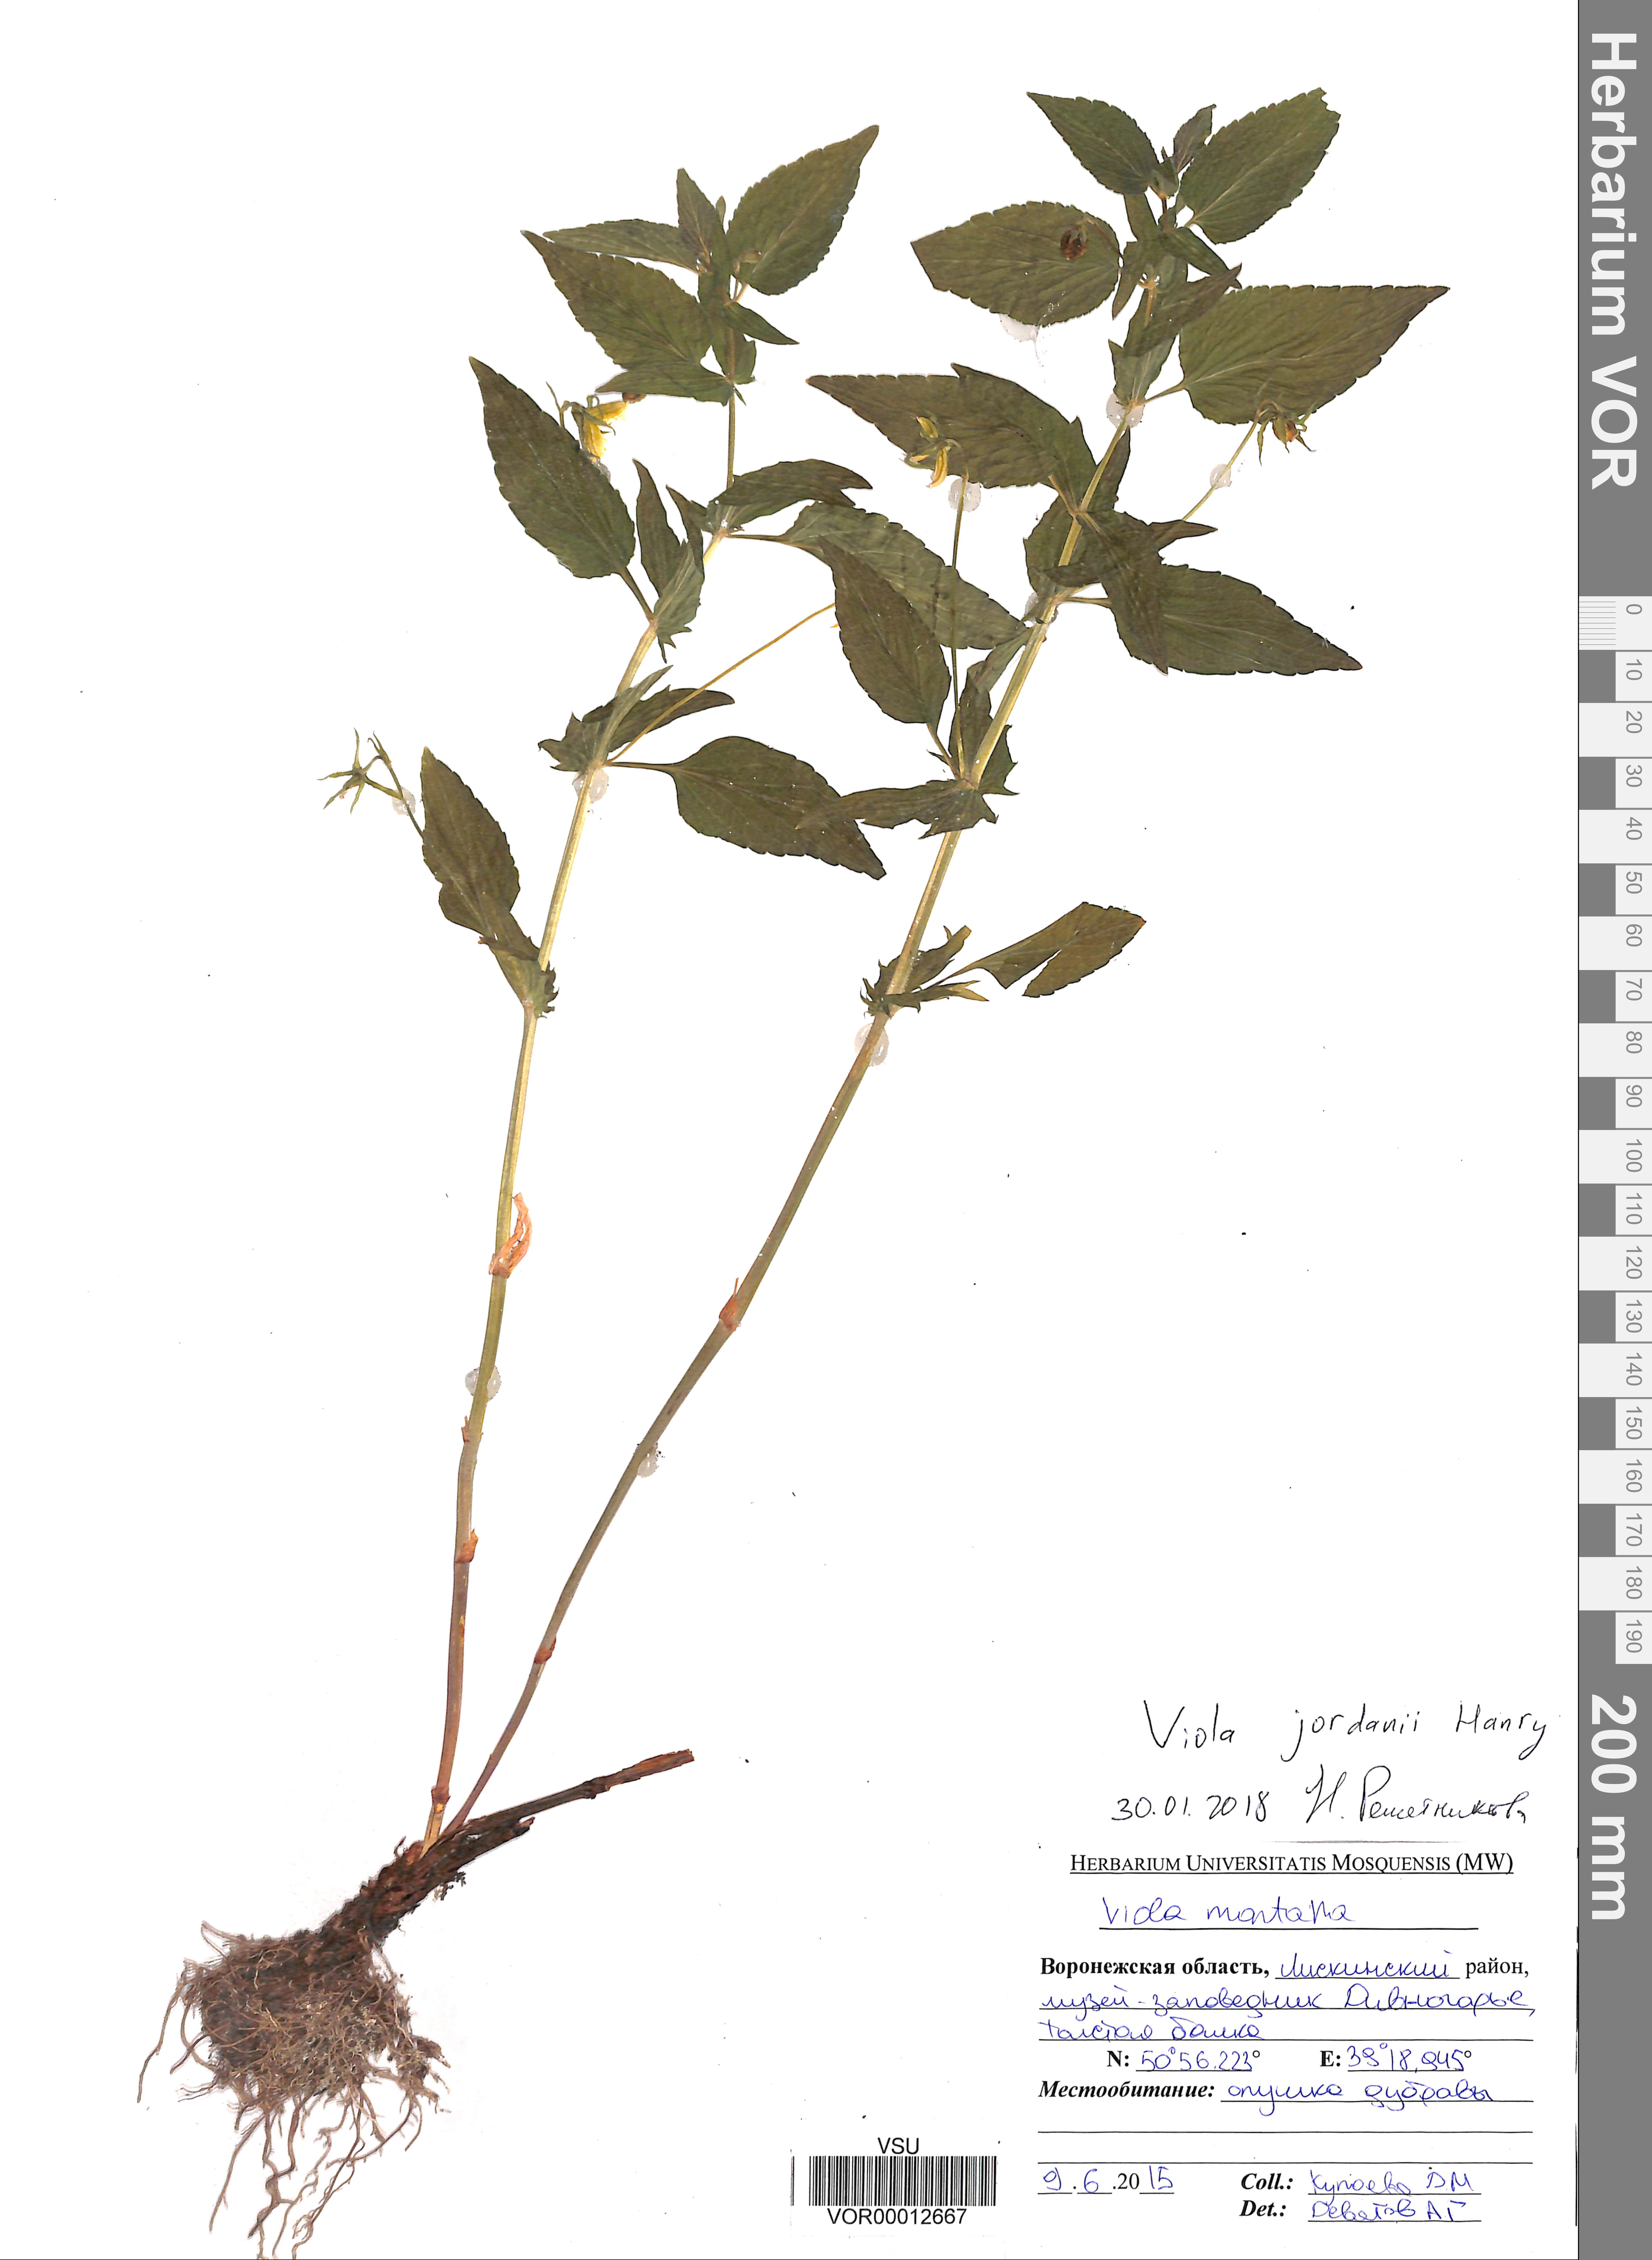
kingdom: Plantae
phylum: Tracheophyta
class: Magnoliopsida
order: Malpighiales
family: Violaceae
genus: Viola
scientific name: Viola jordanii
